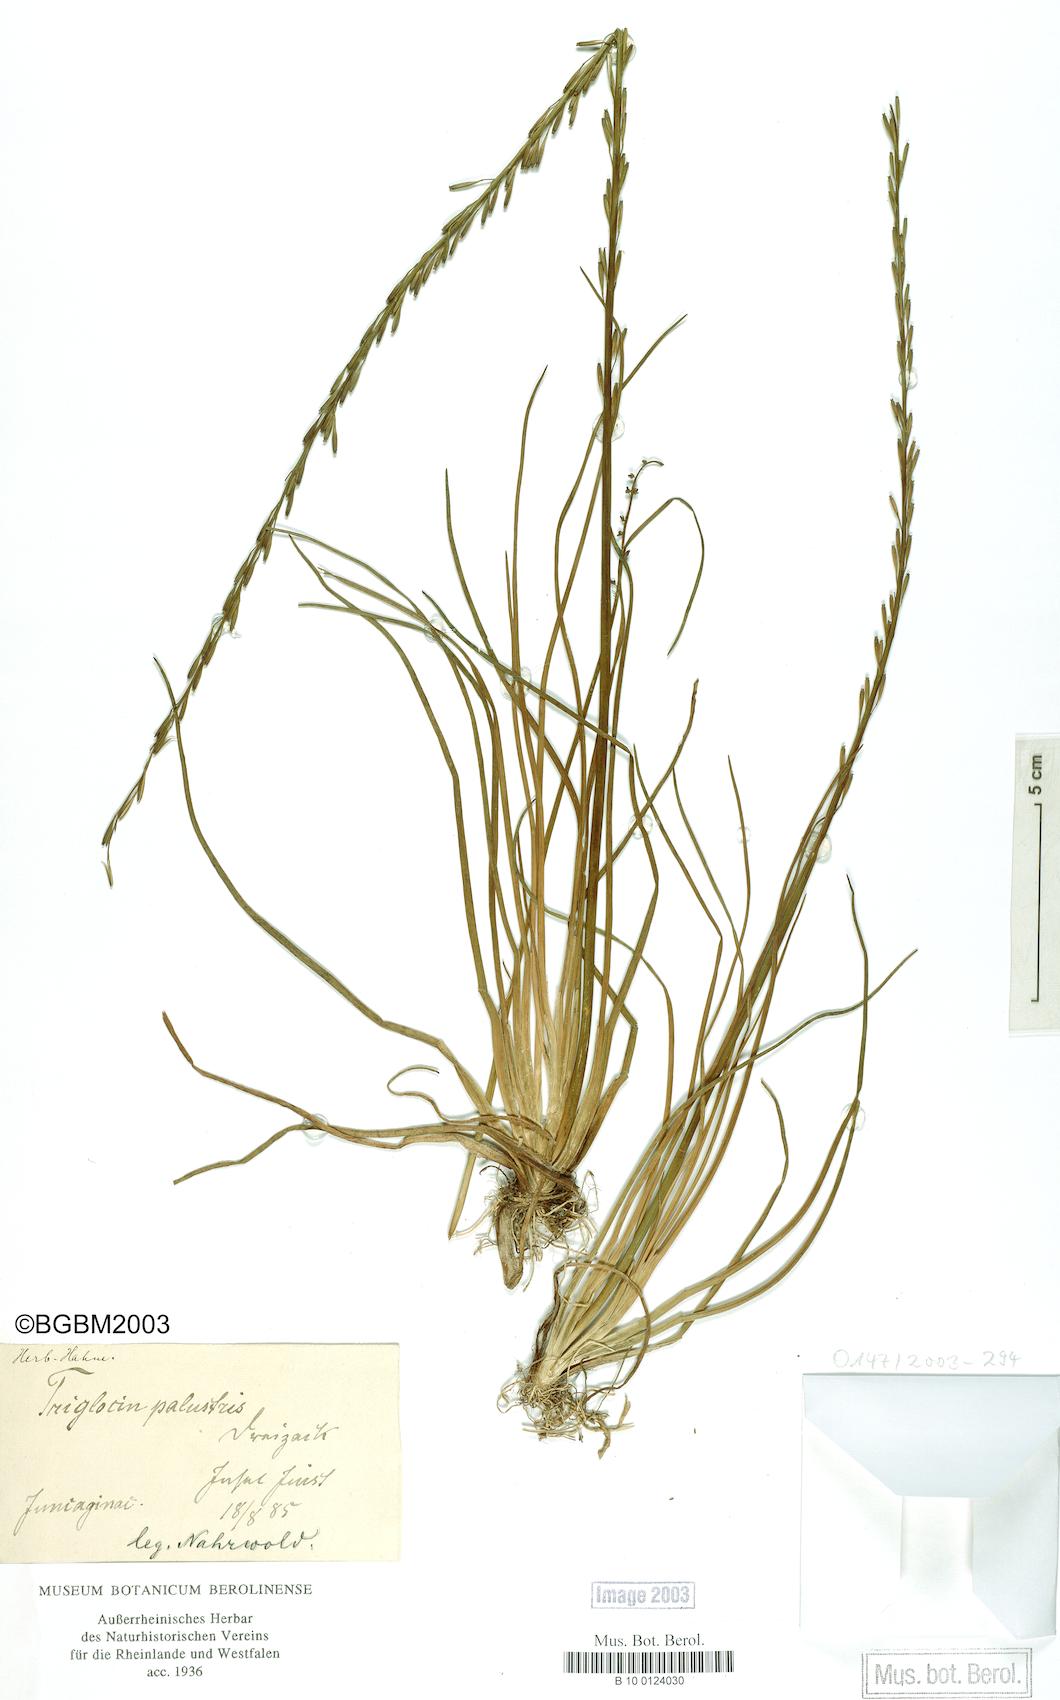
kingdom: Plantae
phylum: Tracheophyta
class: Liliopsida
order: Alismatales
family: Juncaginaceae
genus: Triglochin
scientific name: Triglochin palustris
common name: Marsh arrowgrass
